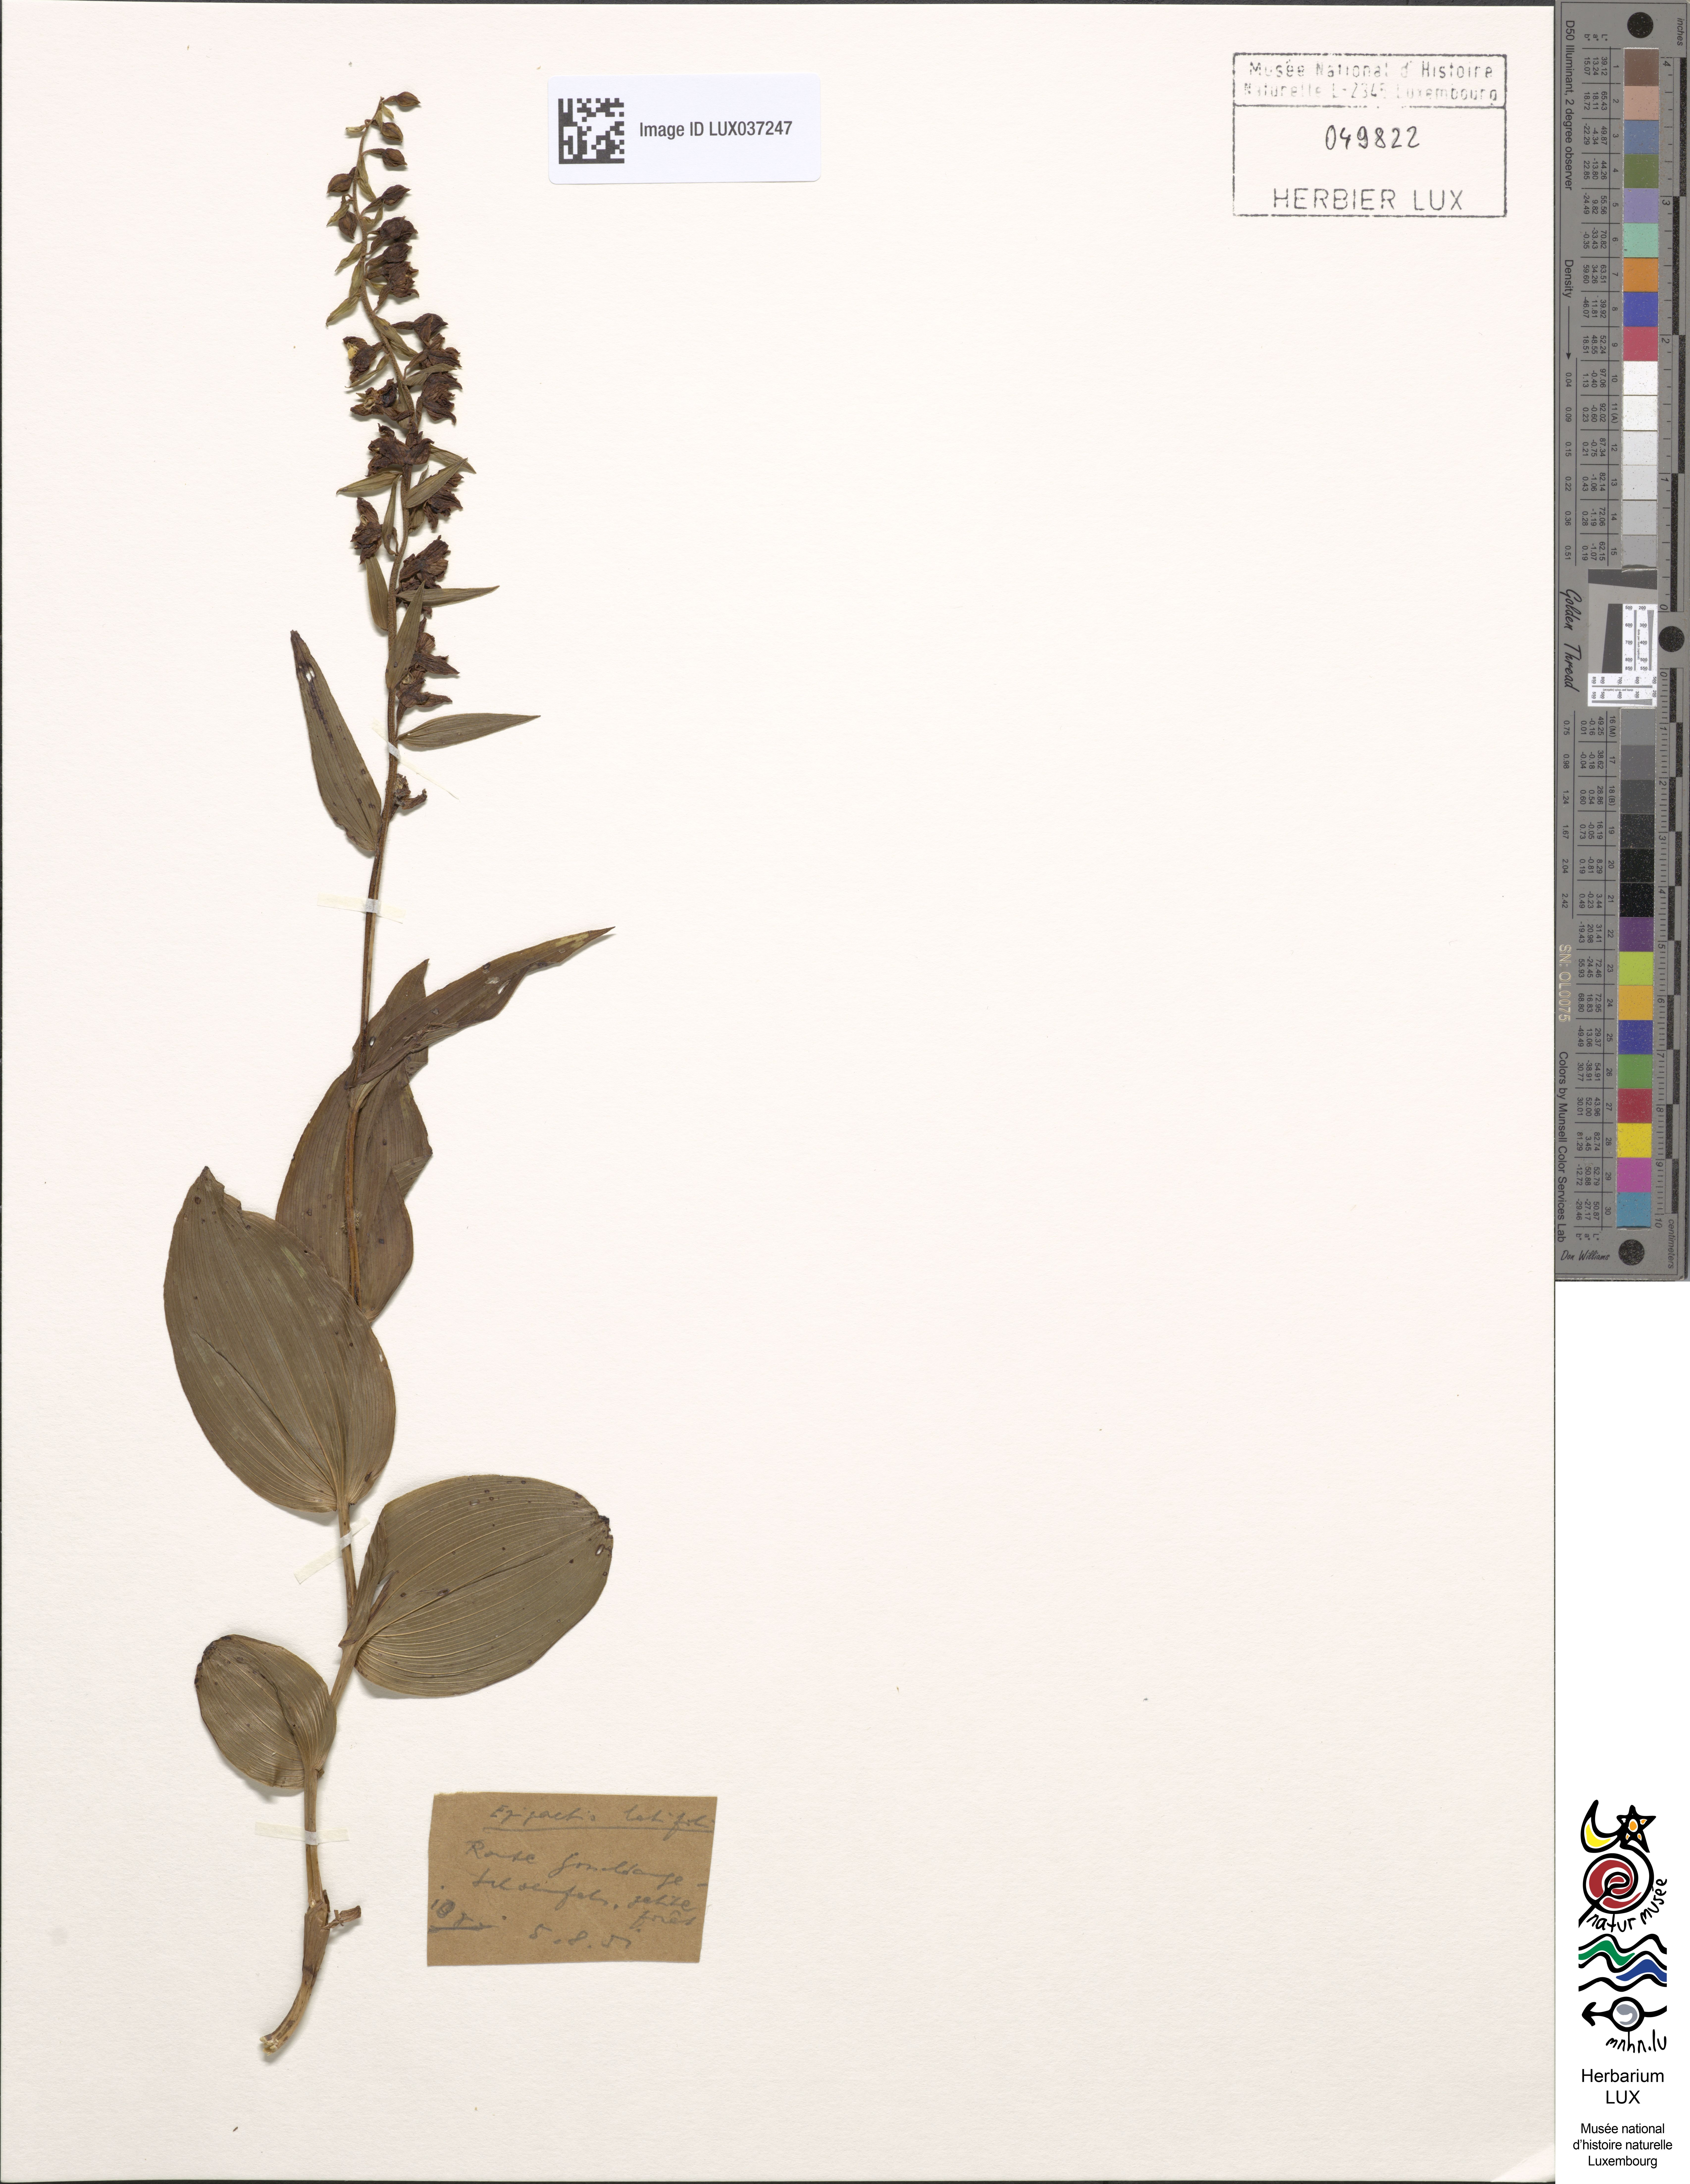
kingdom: Plantae
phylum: Tracheophyta
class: Liliopsida
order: Asparagales
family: Orchidaceae
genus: Epipactis
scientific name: Epipactis helleborine
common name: Broad-leaved helleborine
